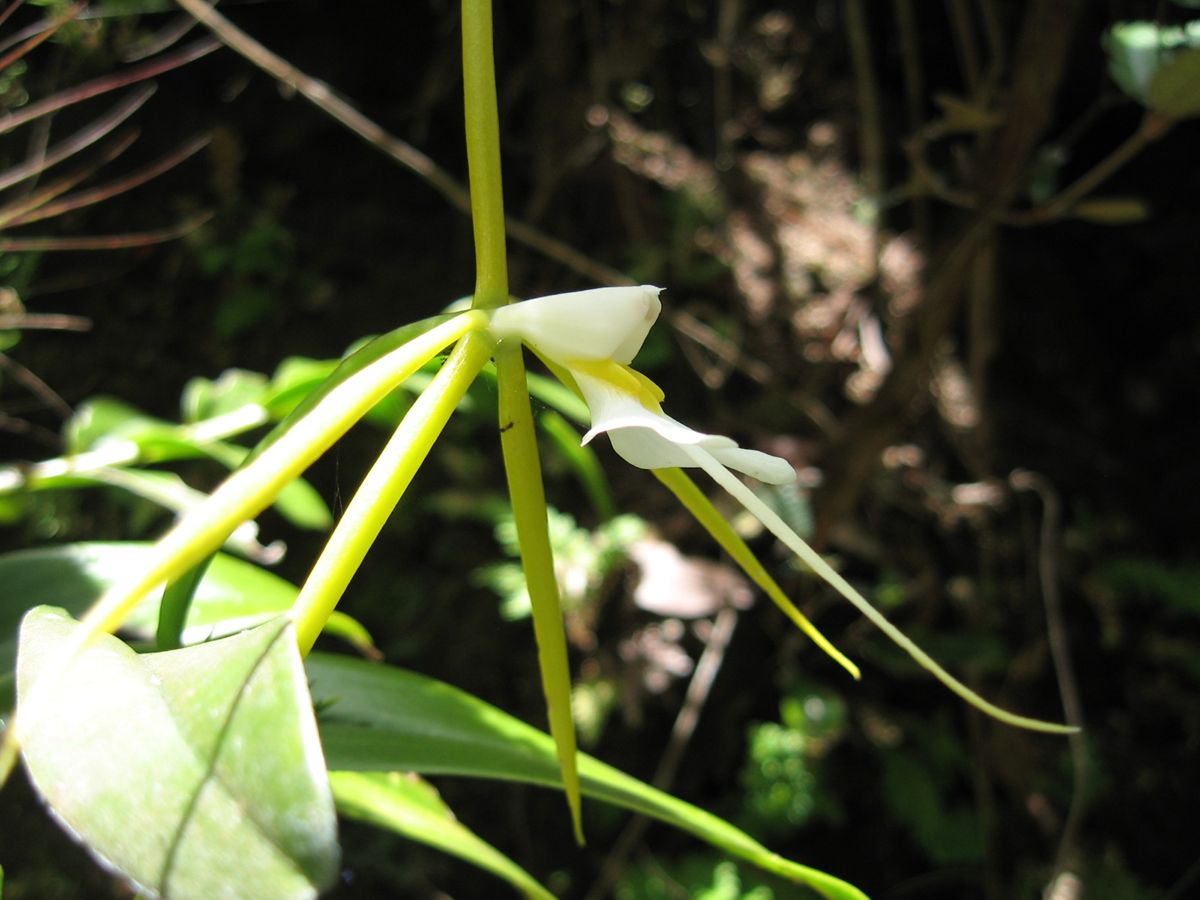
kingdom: Plantae
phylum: Tracheophyta
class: Liliopsida
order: Asparagales
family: Orchidaceae
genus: Epidendrum
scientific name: Epidendrum nocturnum
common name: Night scented orchid
